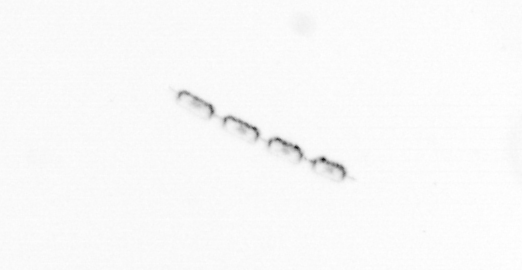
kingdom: Chromista
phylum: Ochrophyta
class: Bacillariophyceae
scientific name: Bacillariophyceae
